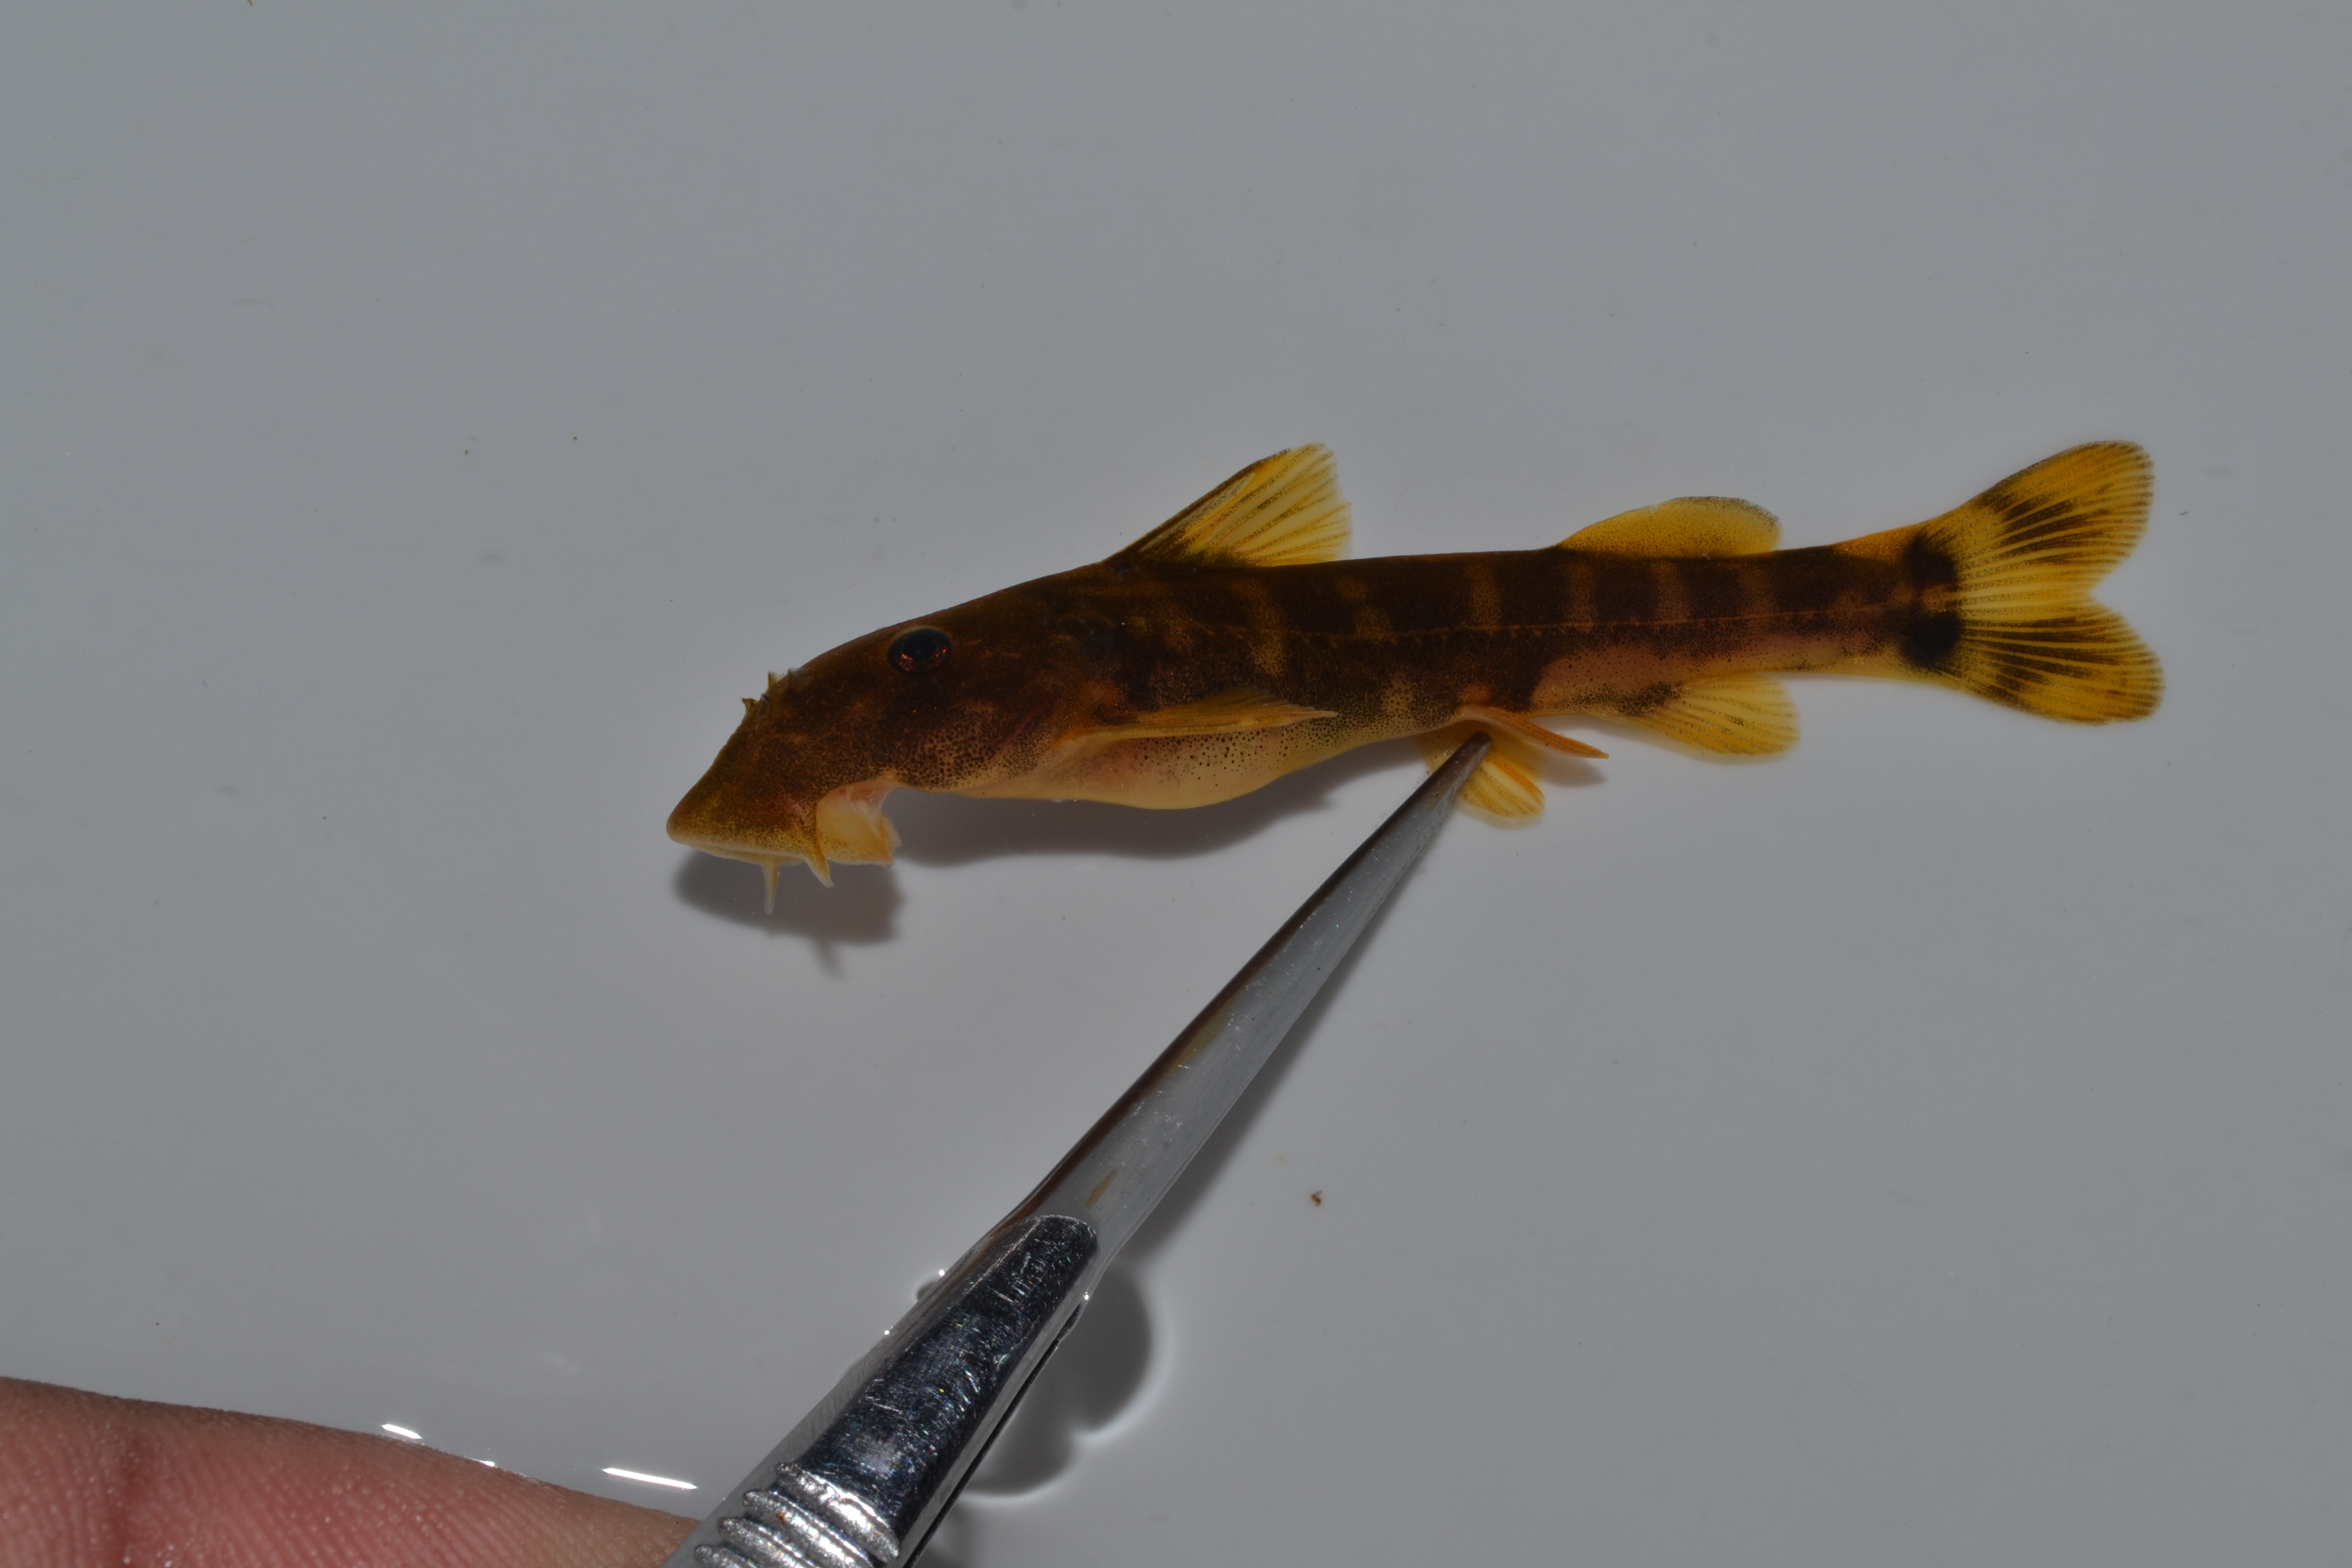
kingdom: Animalia
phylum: Chordata
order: Siluriformes
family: Mochokidae
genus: Chiloglanis
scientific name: Chiloglanis pretoriae
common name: Shortspine catlet
